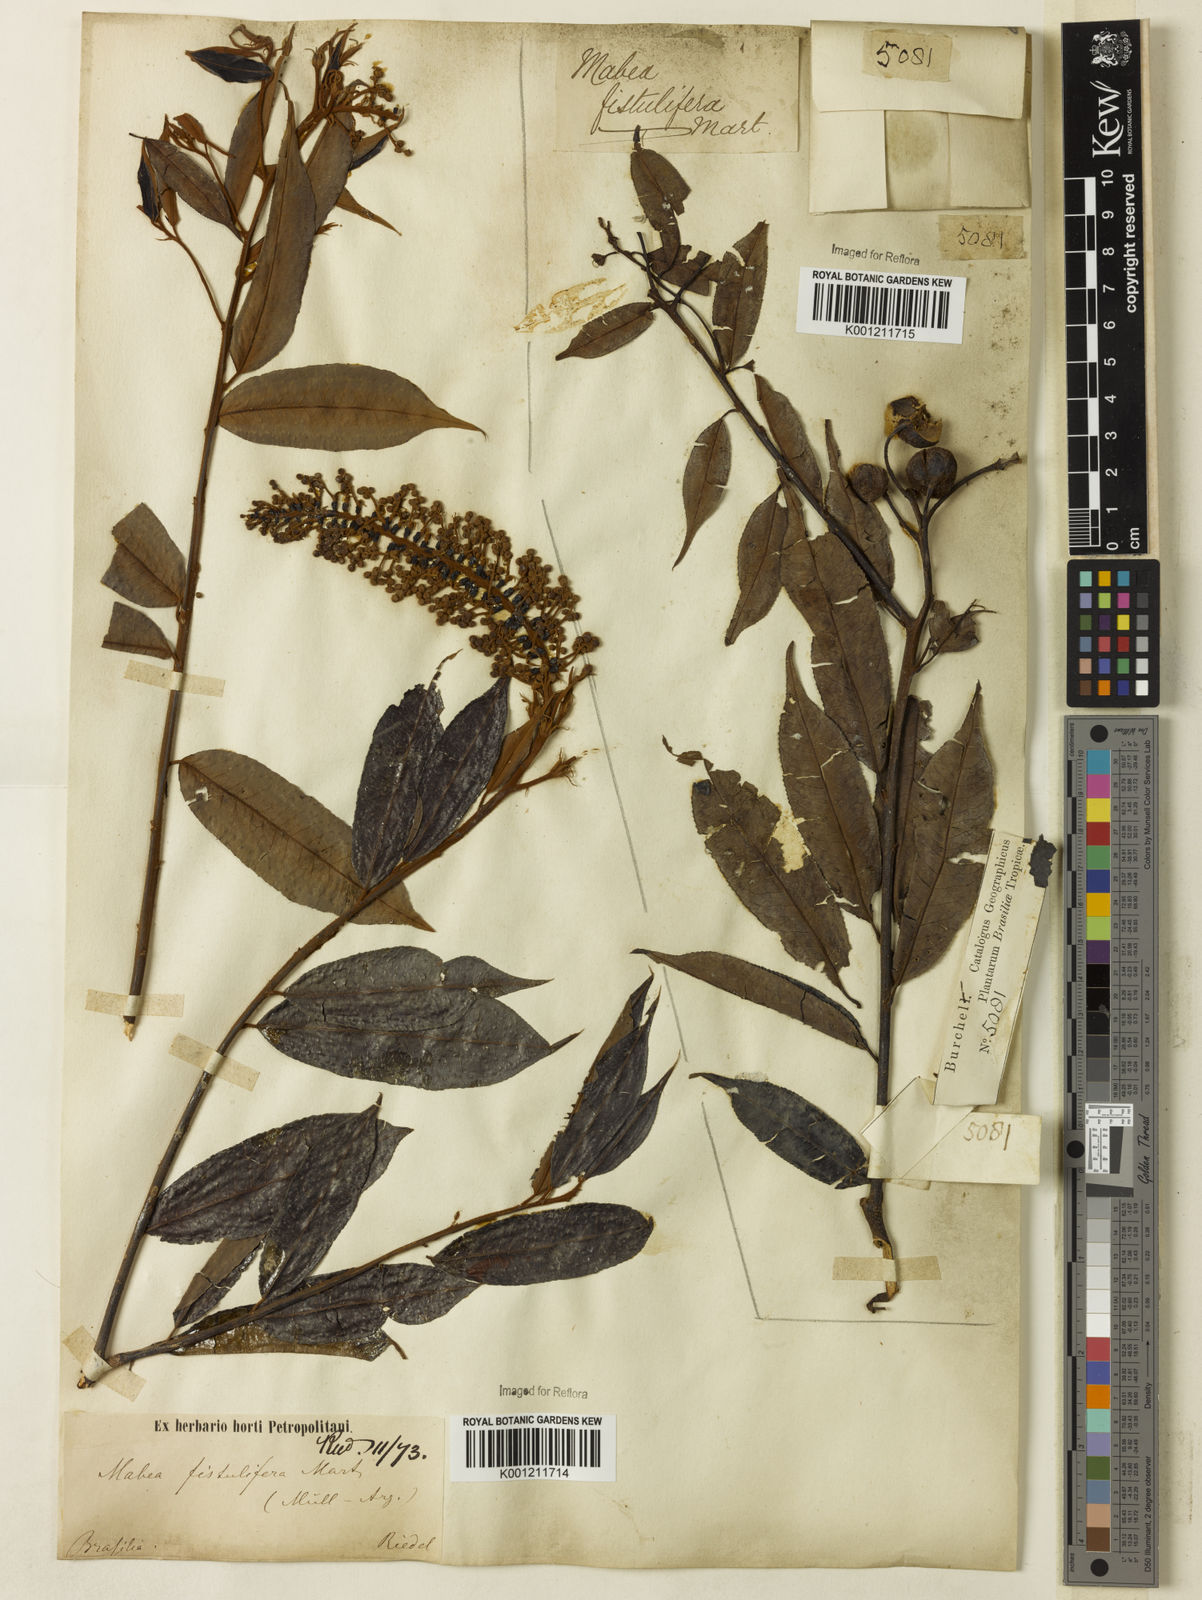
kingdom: Plantae
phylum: Tracheophyta
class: Magnoliopsida
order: Malpighiales
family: Euphorbiaceae
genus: Mabea
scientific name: Mabea fistulifera
